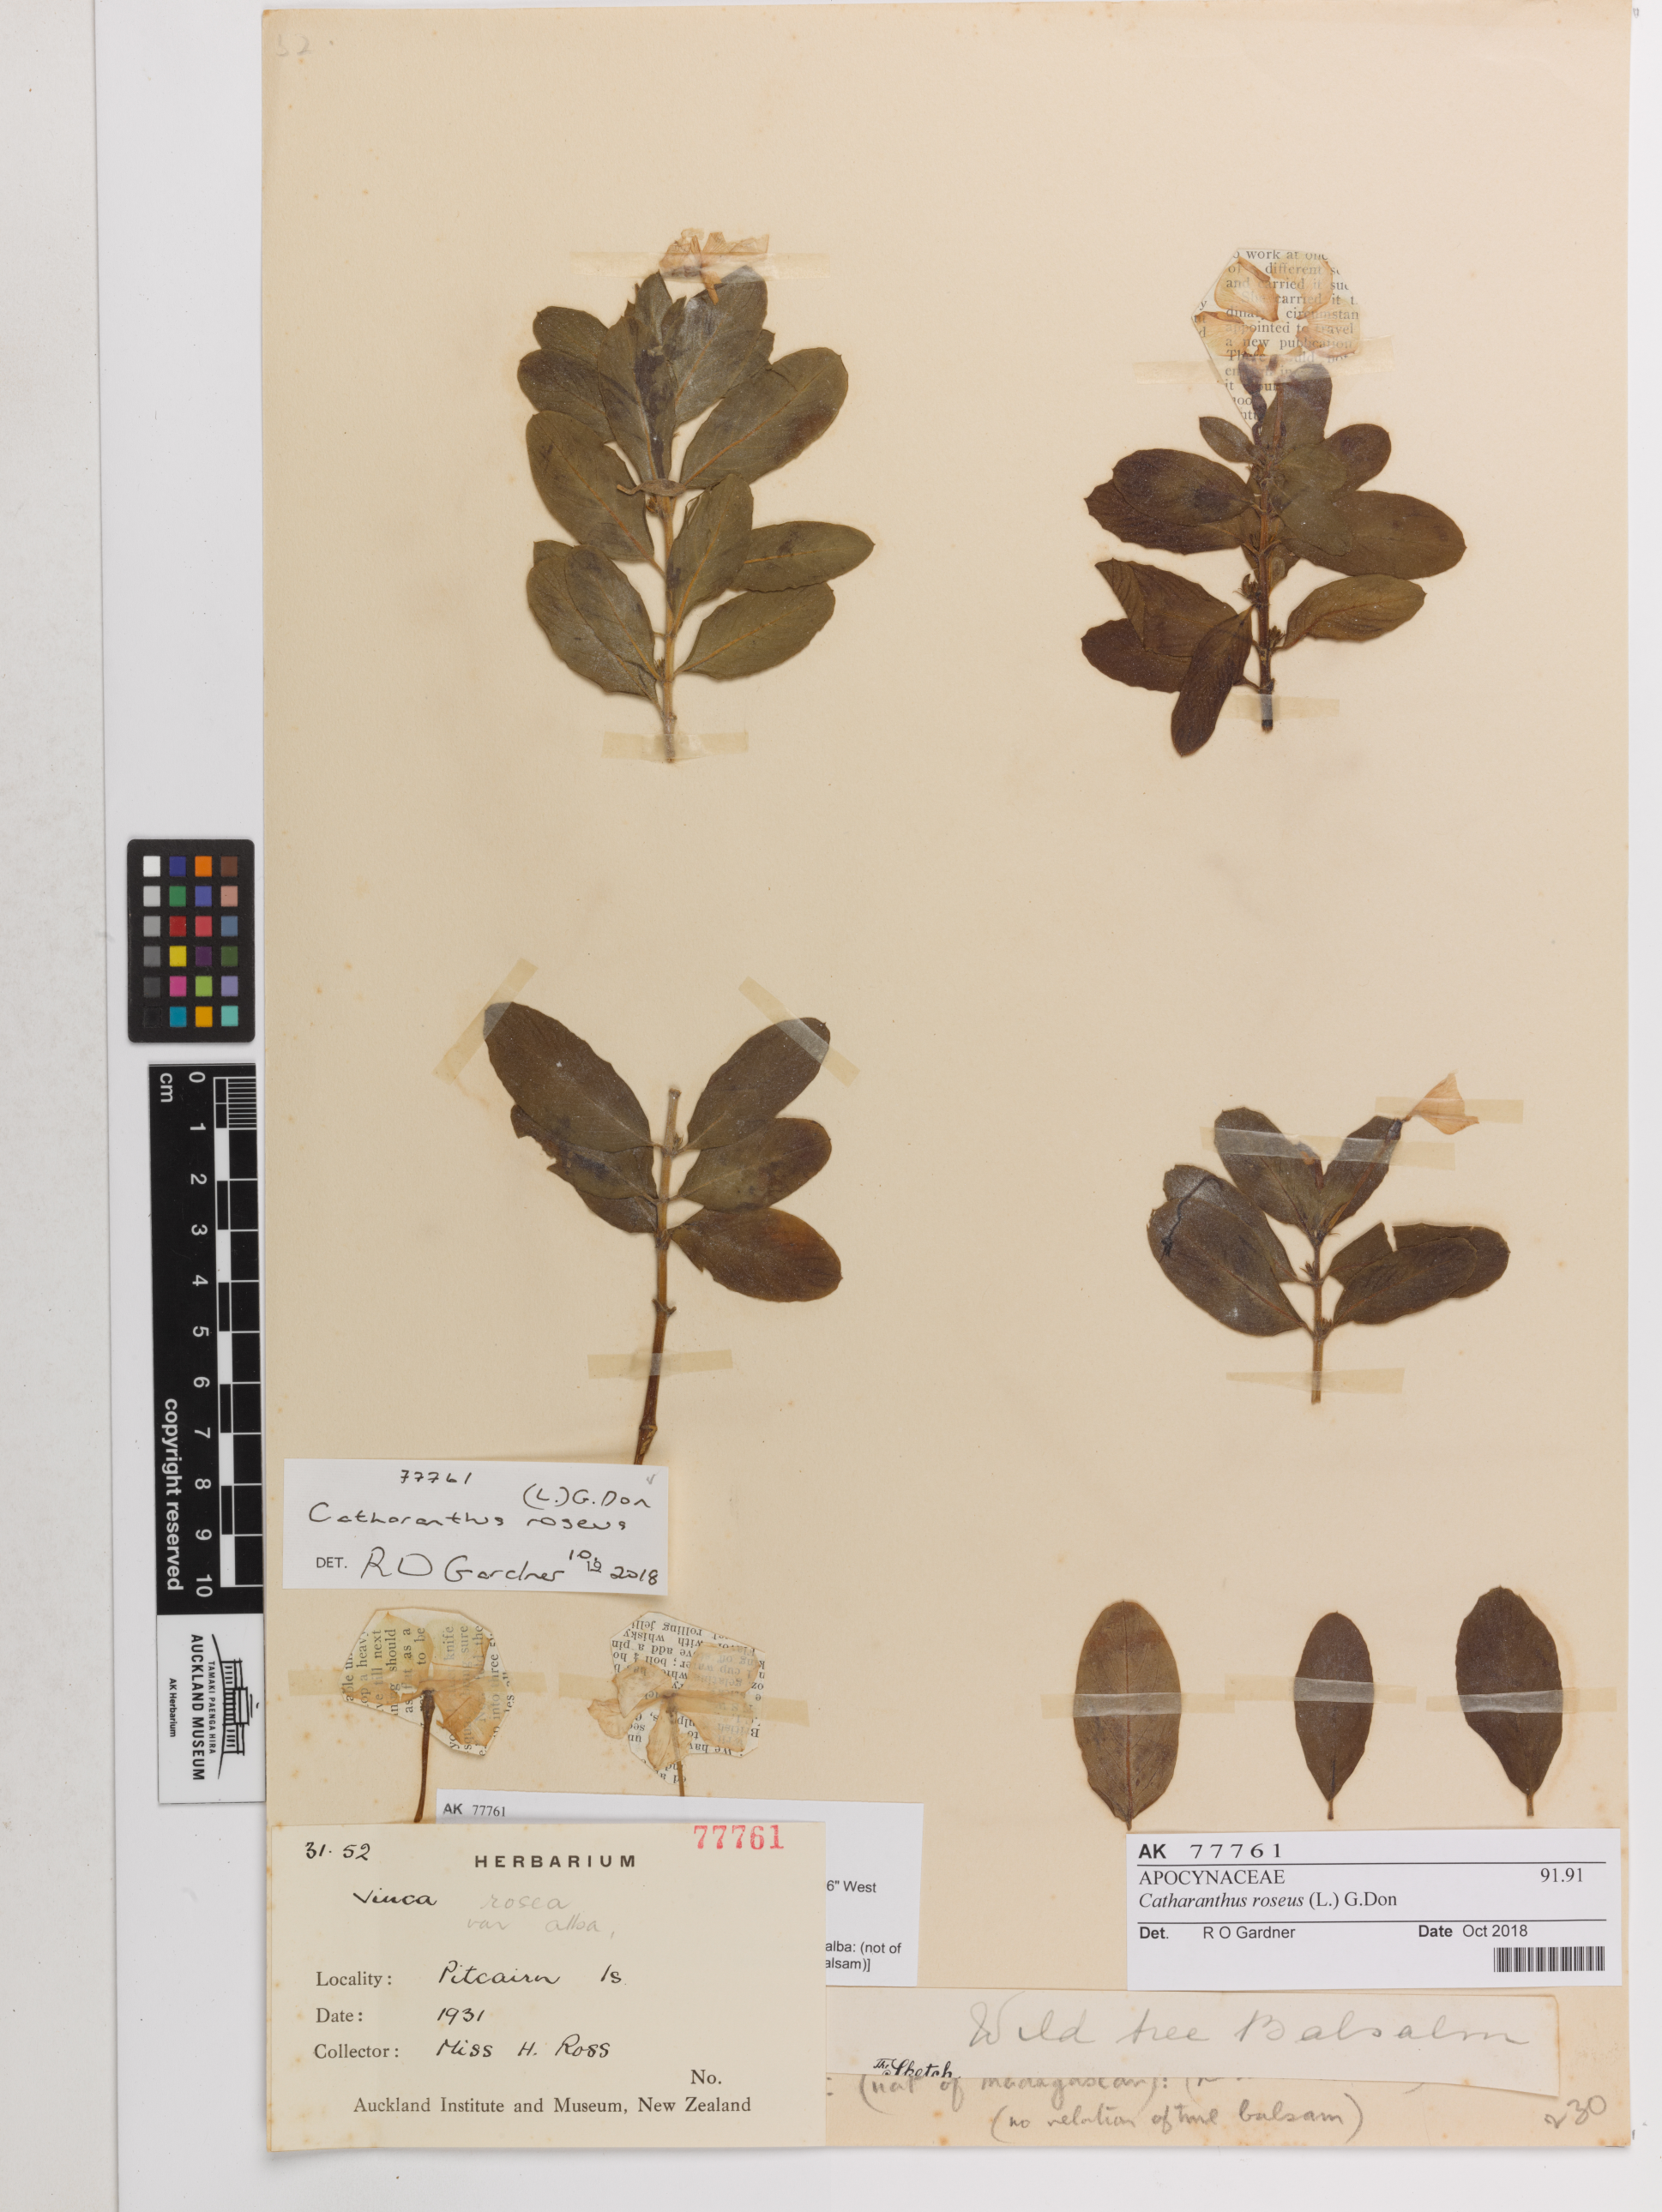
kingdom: Plantae
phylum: Tracheophyta
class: Magnoliopsida
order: Gentianales
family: Apocynaceae
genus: Catharanthus
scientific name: Catharanthus roseus
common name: Madagascar periwinkle
